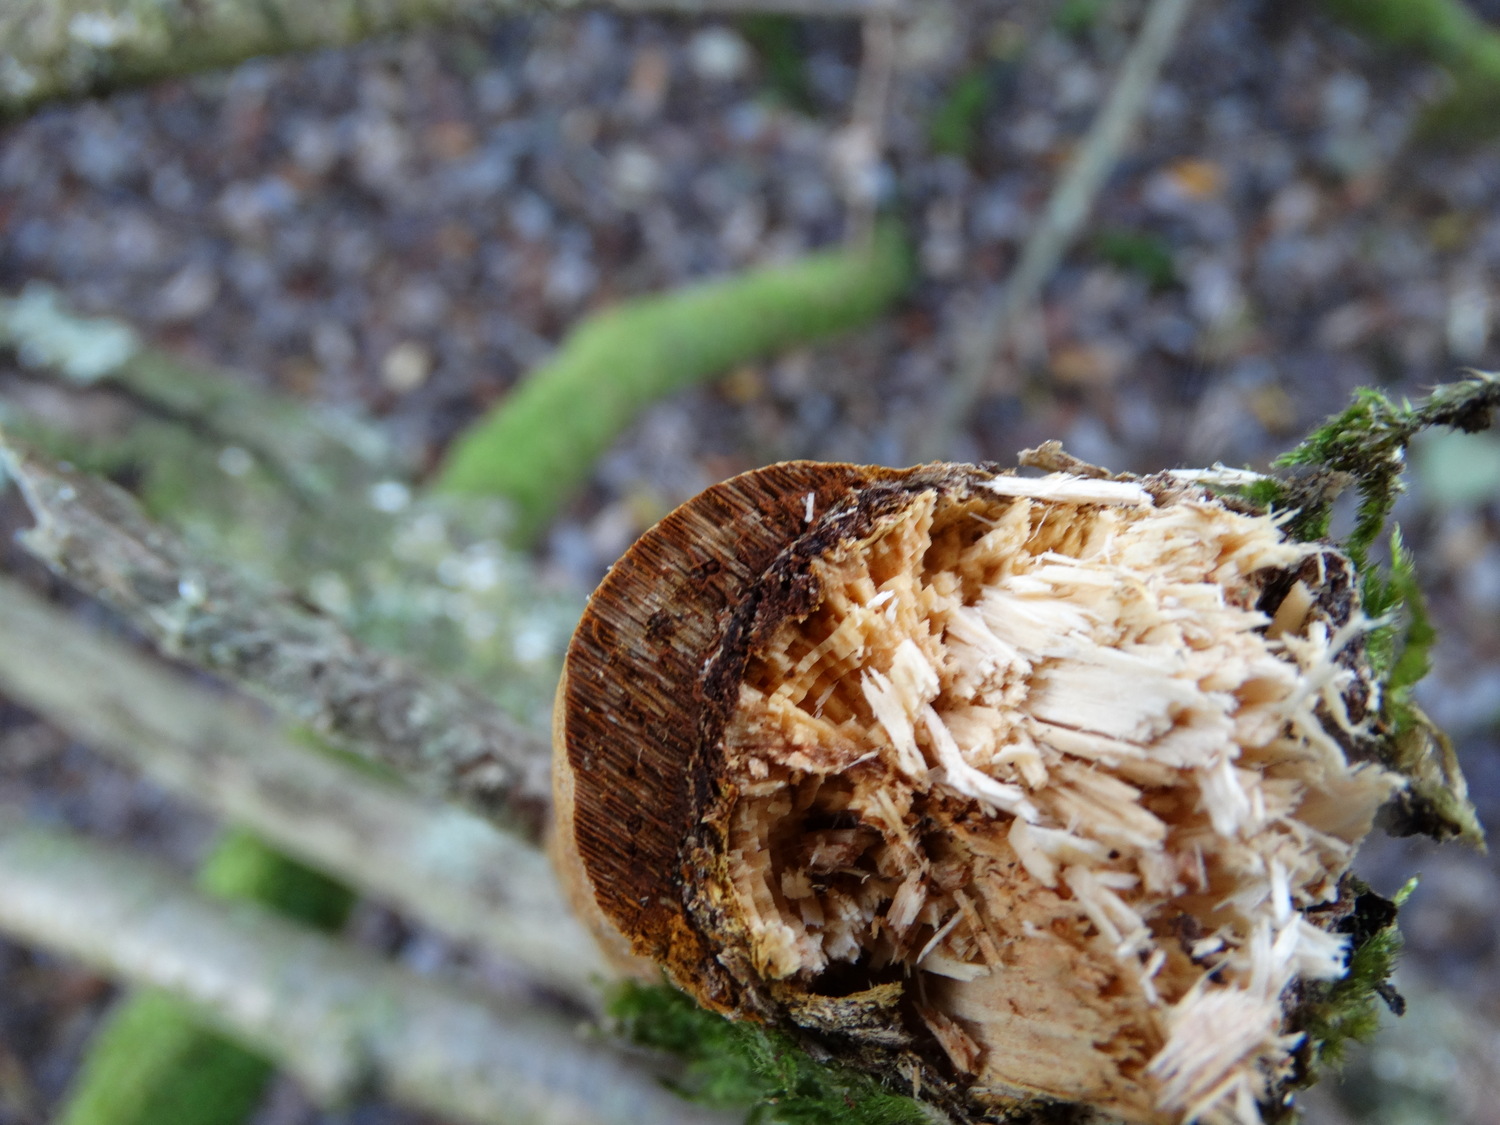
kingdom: Fungi
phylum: Basidiomycota
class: Agaricomycetes
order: Hymenochaetales
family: Hymenochaetaceae
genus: Fuscoporia
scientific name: Fuscoporia ferrea
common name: skorpe-ildporesvamp
